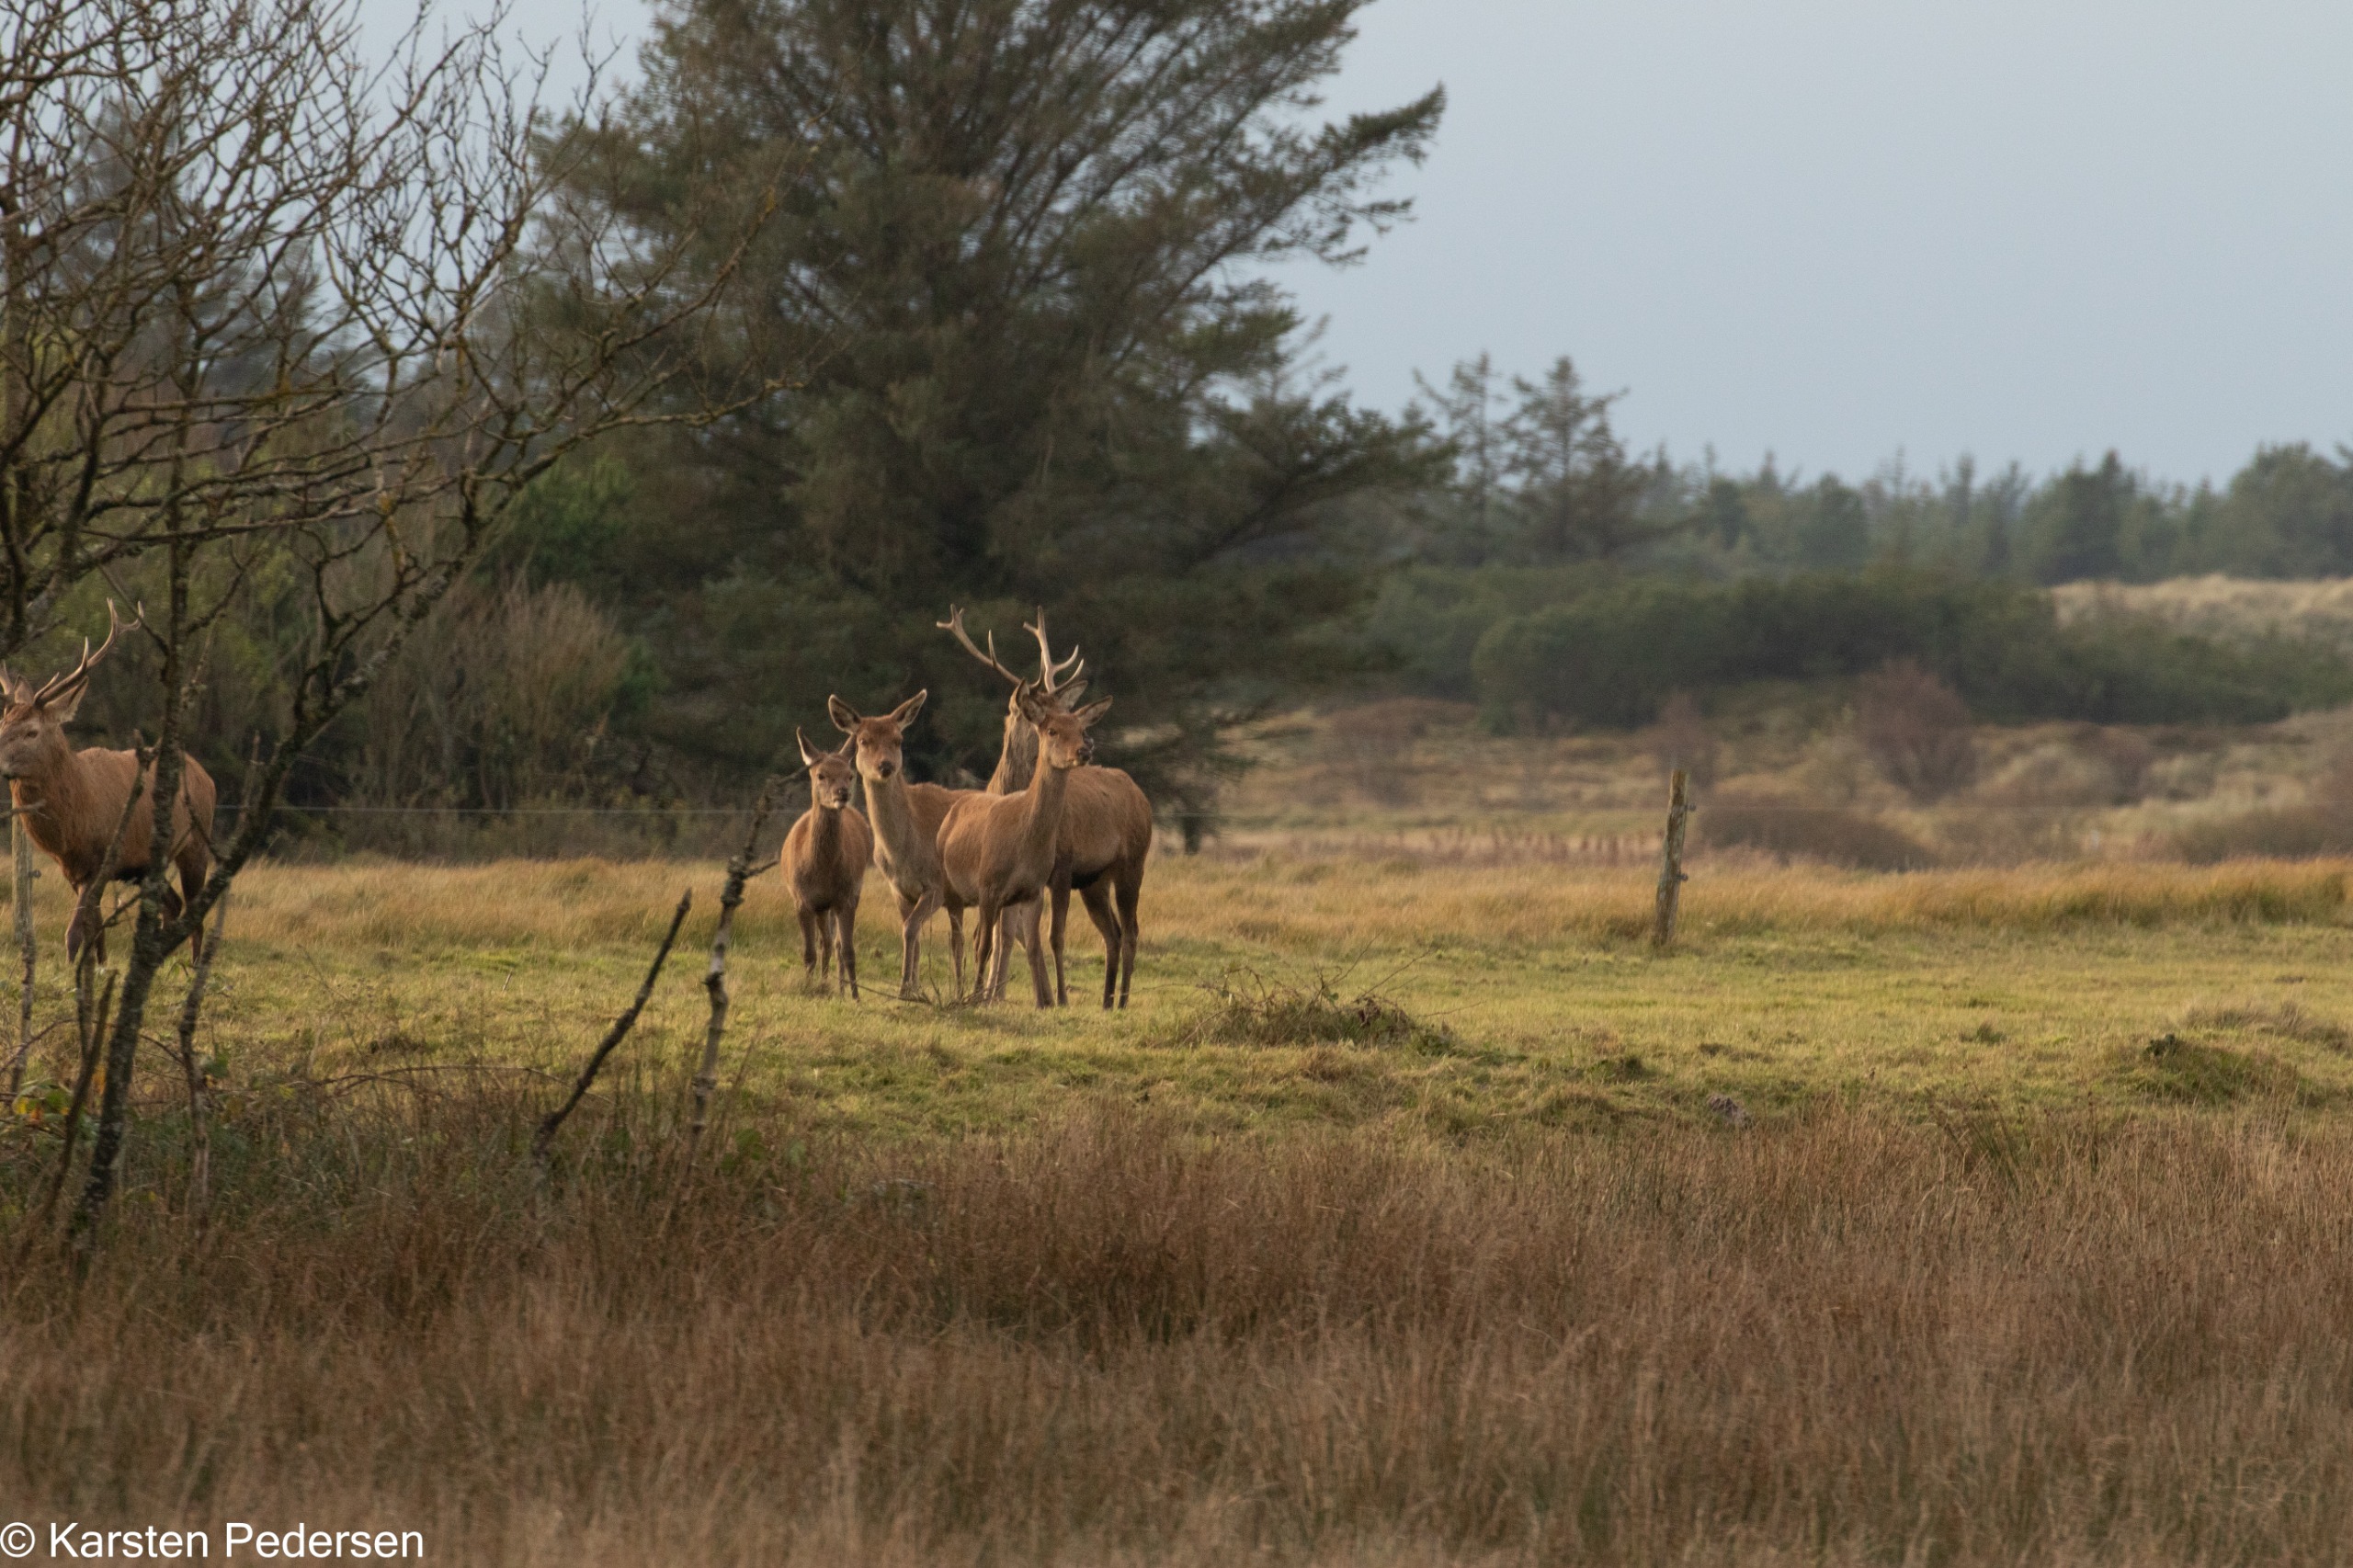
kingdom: Animalia
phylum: Chordata
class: Mammalia
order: Artiodactyla
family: Cervidae
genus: Cervus
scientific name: Cervus elaphus
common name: Krondyr
